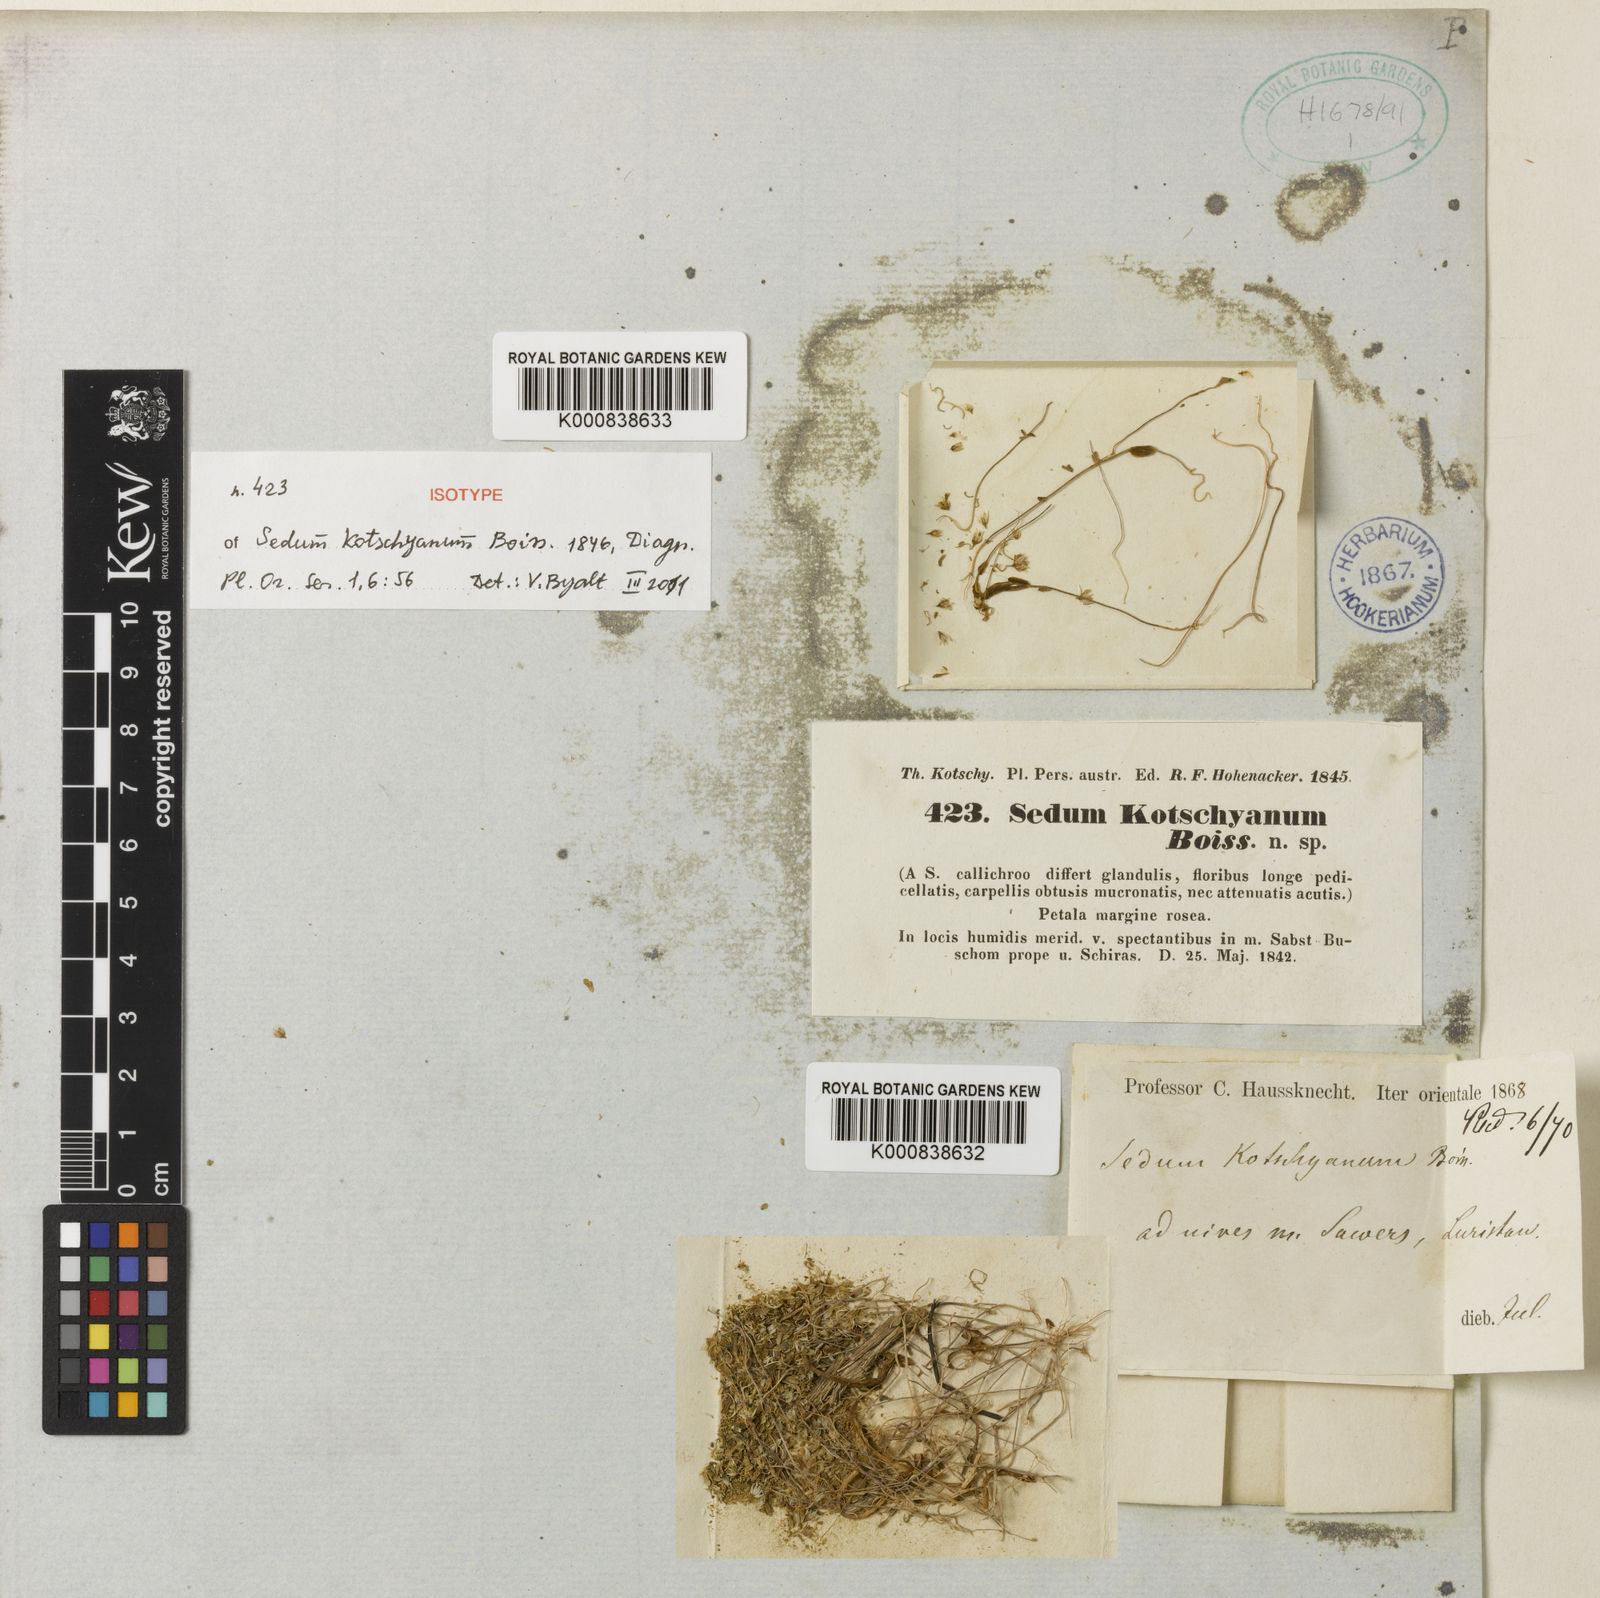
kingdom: Plantae
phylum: Tracheophyta
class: Magnoliopsida
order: Saxifragales
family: Crassulaceae
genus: Sedum
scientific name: Sedum kotschyanum
